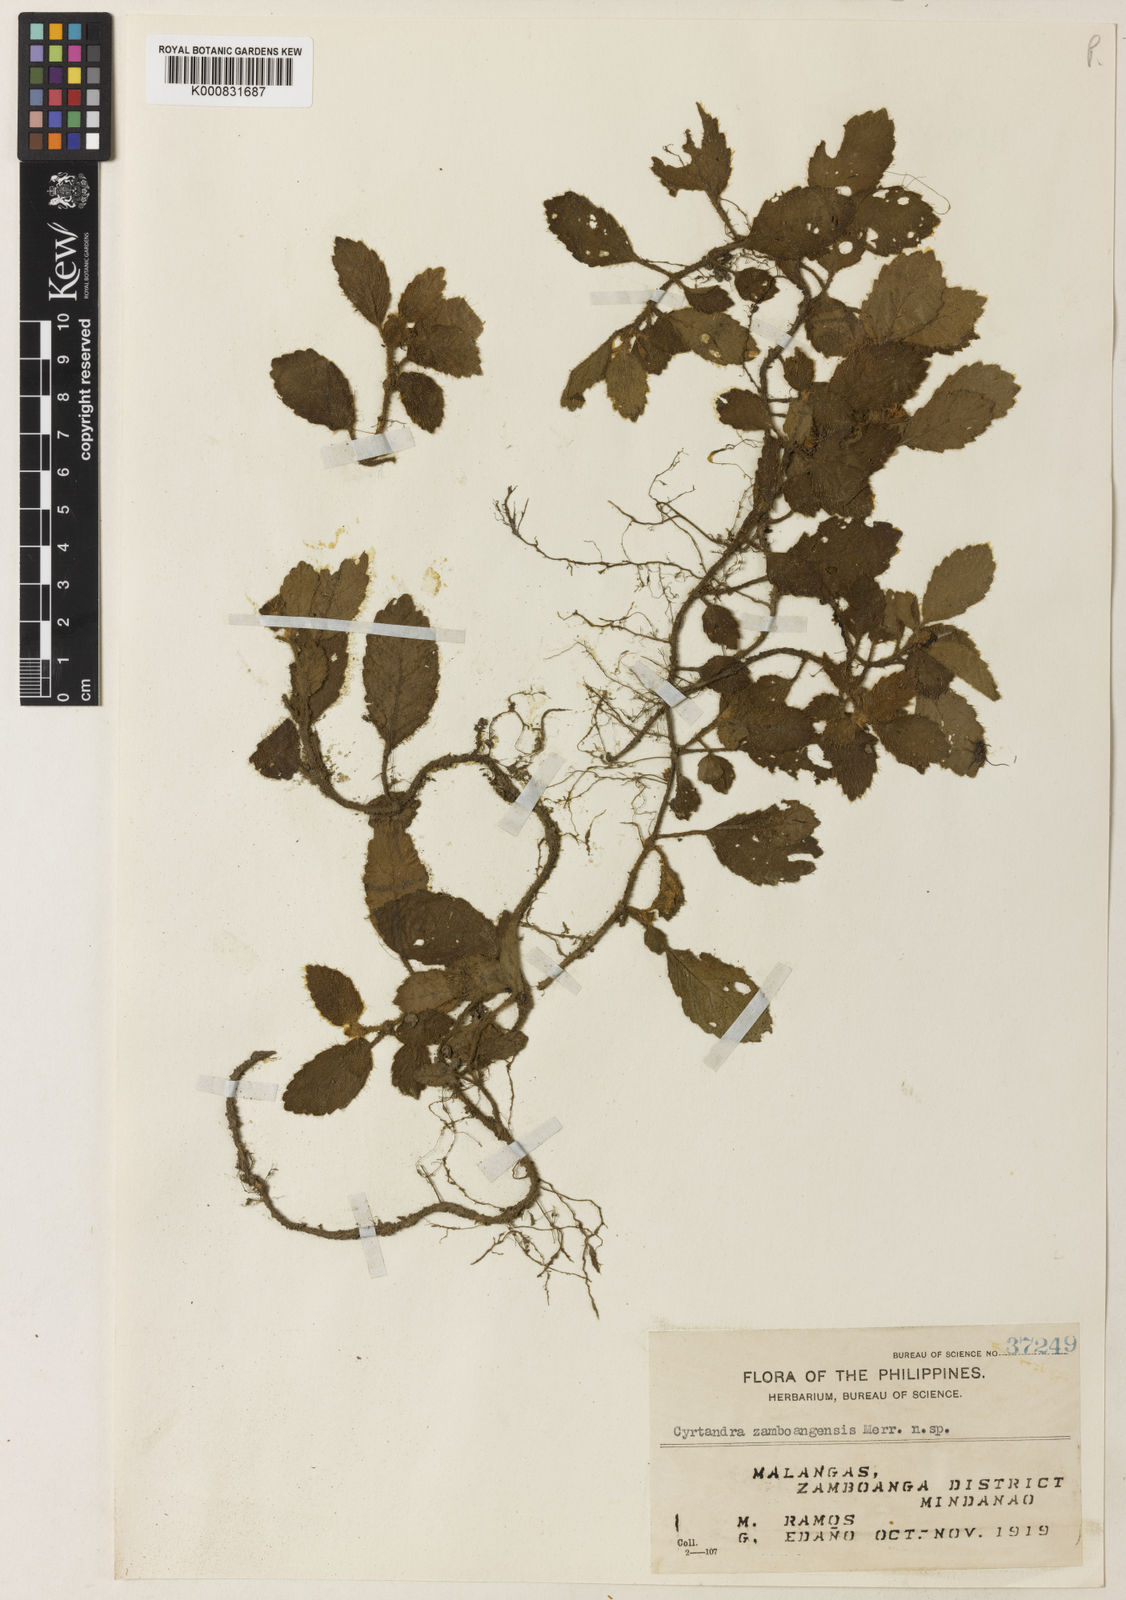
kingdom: Plantae
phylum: Tracheophyta
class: Magnoliopsida
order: Lamiales
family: Gesneriaceae
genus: Cyrtandra
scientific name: Cyrtandra zamboangensis
